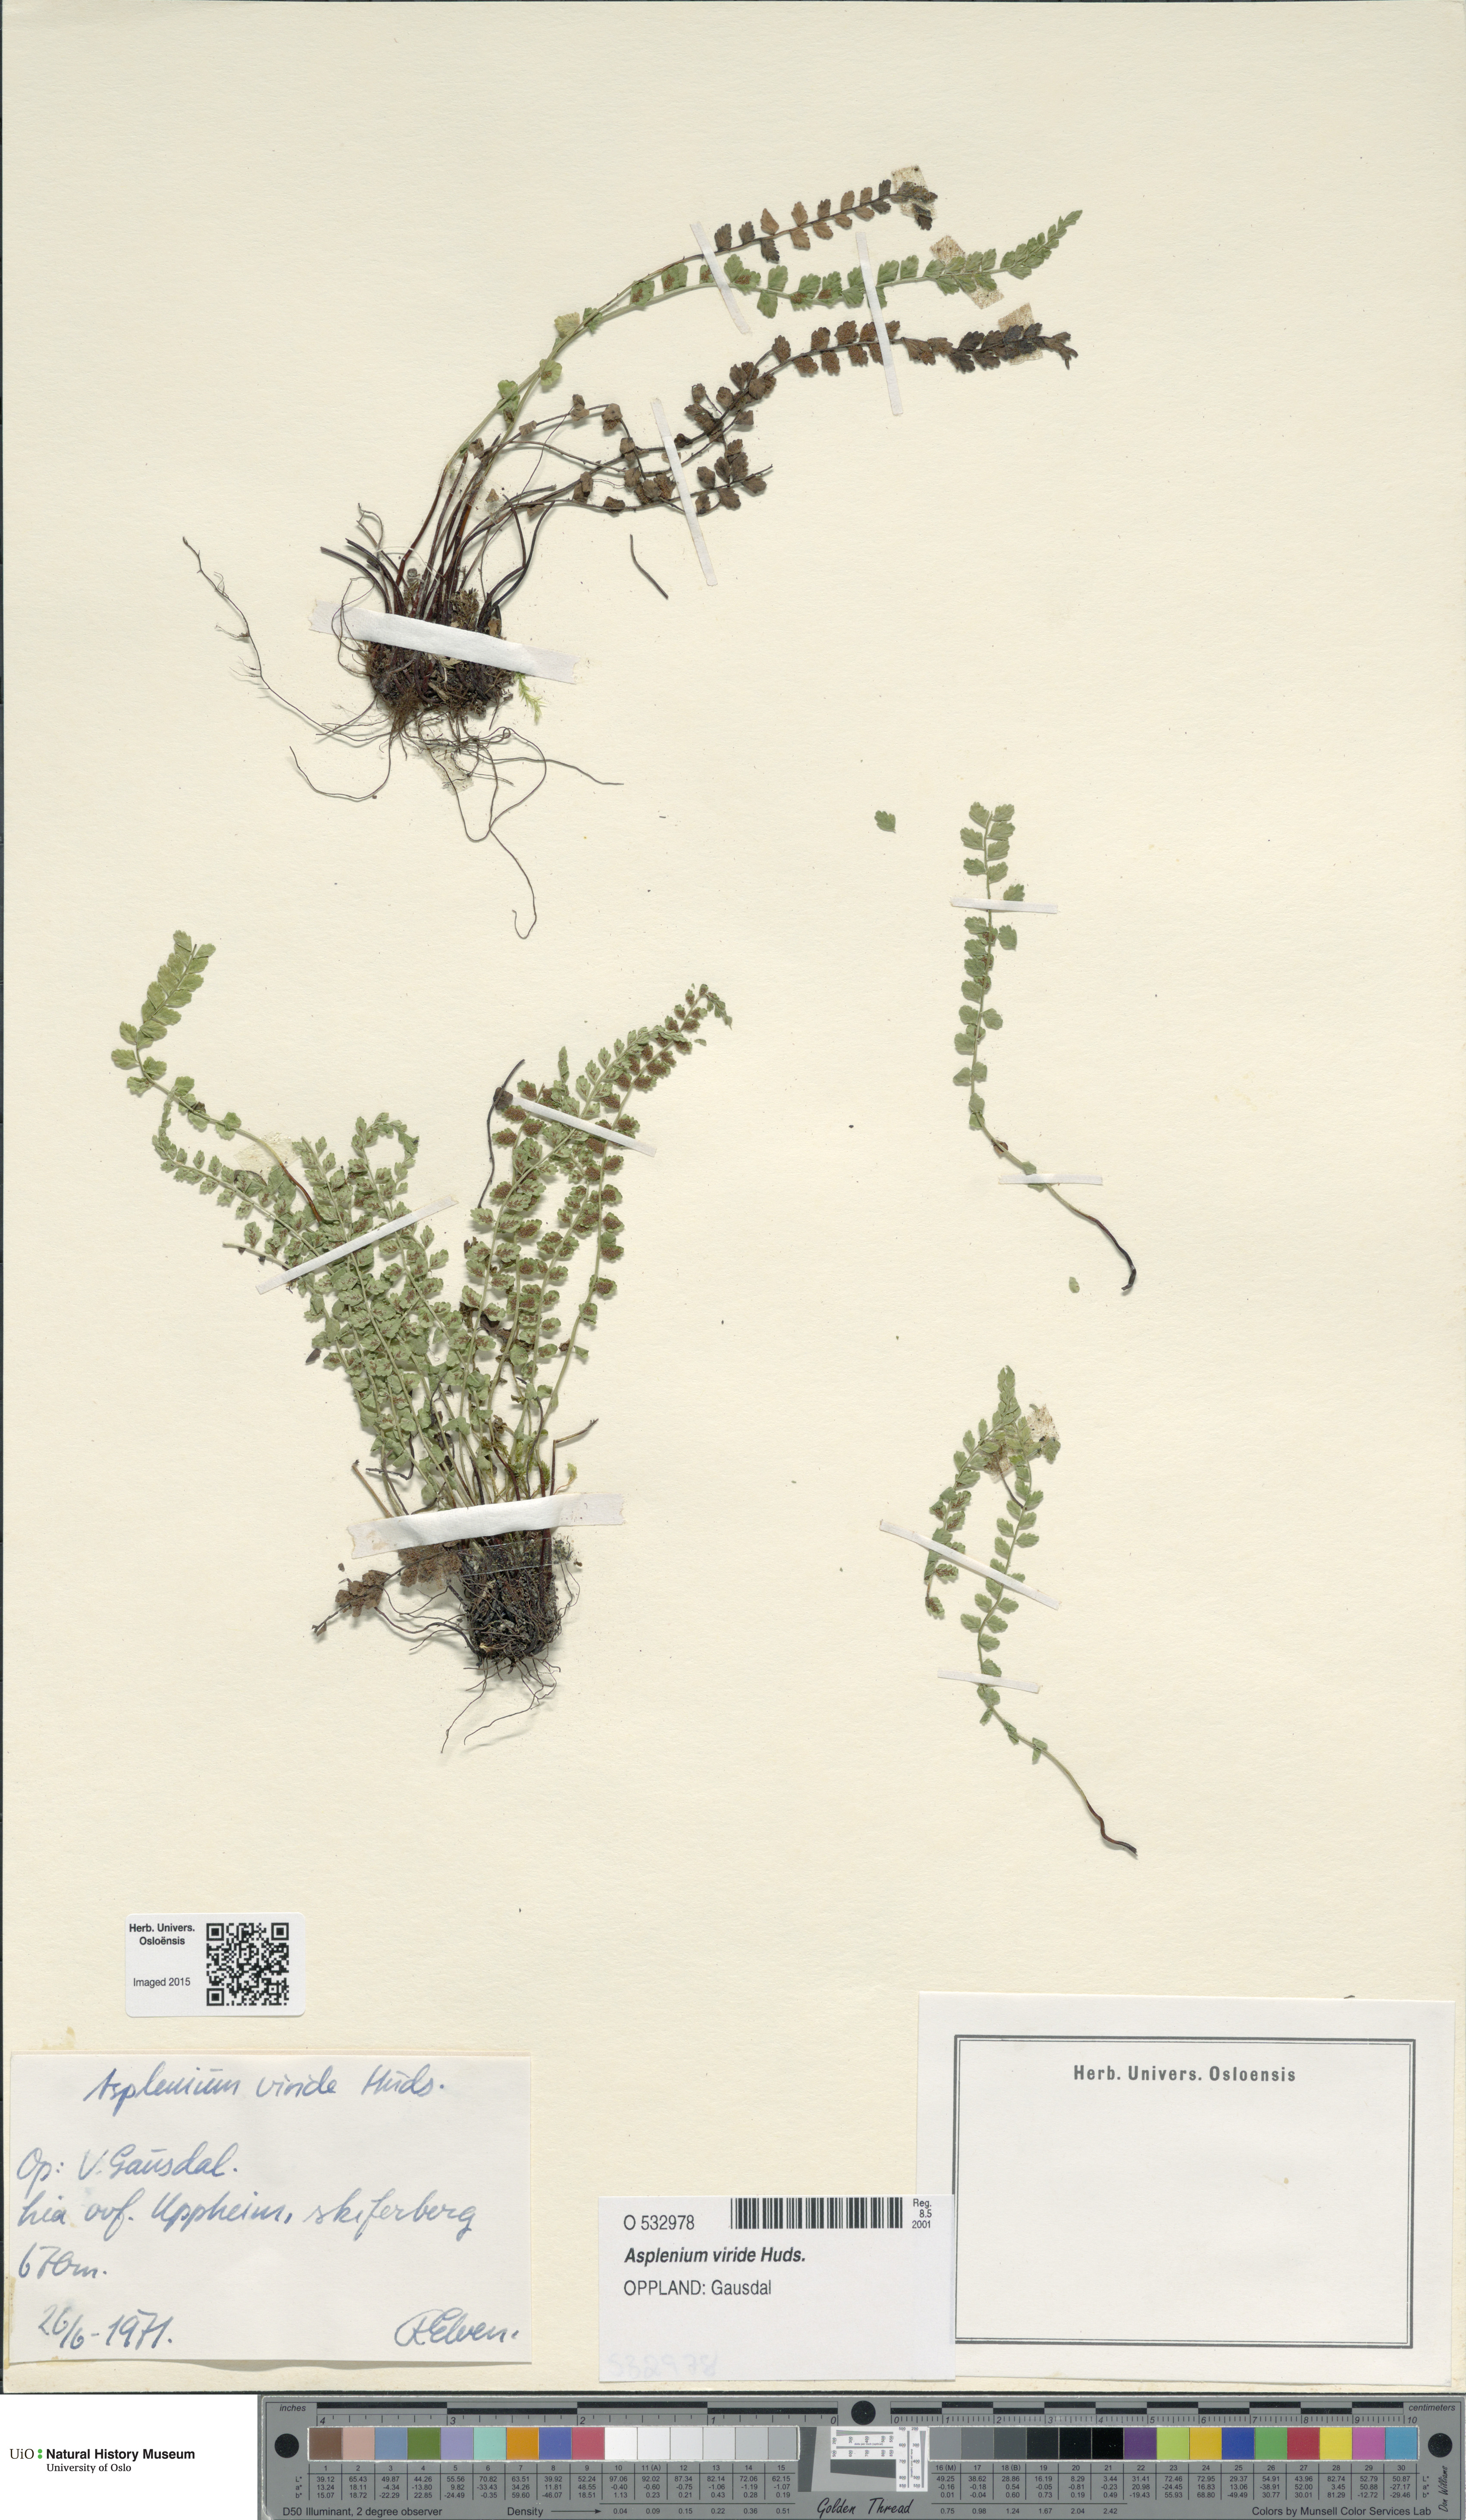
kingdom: Plantae
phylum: Tracheophyta
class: Polypodiopsida
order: Polypodiales
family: Aspleniaceae
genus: Asplenium
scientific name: Asplenium viride
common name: Green spleenwort
